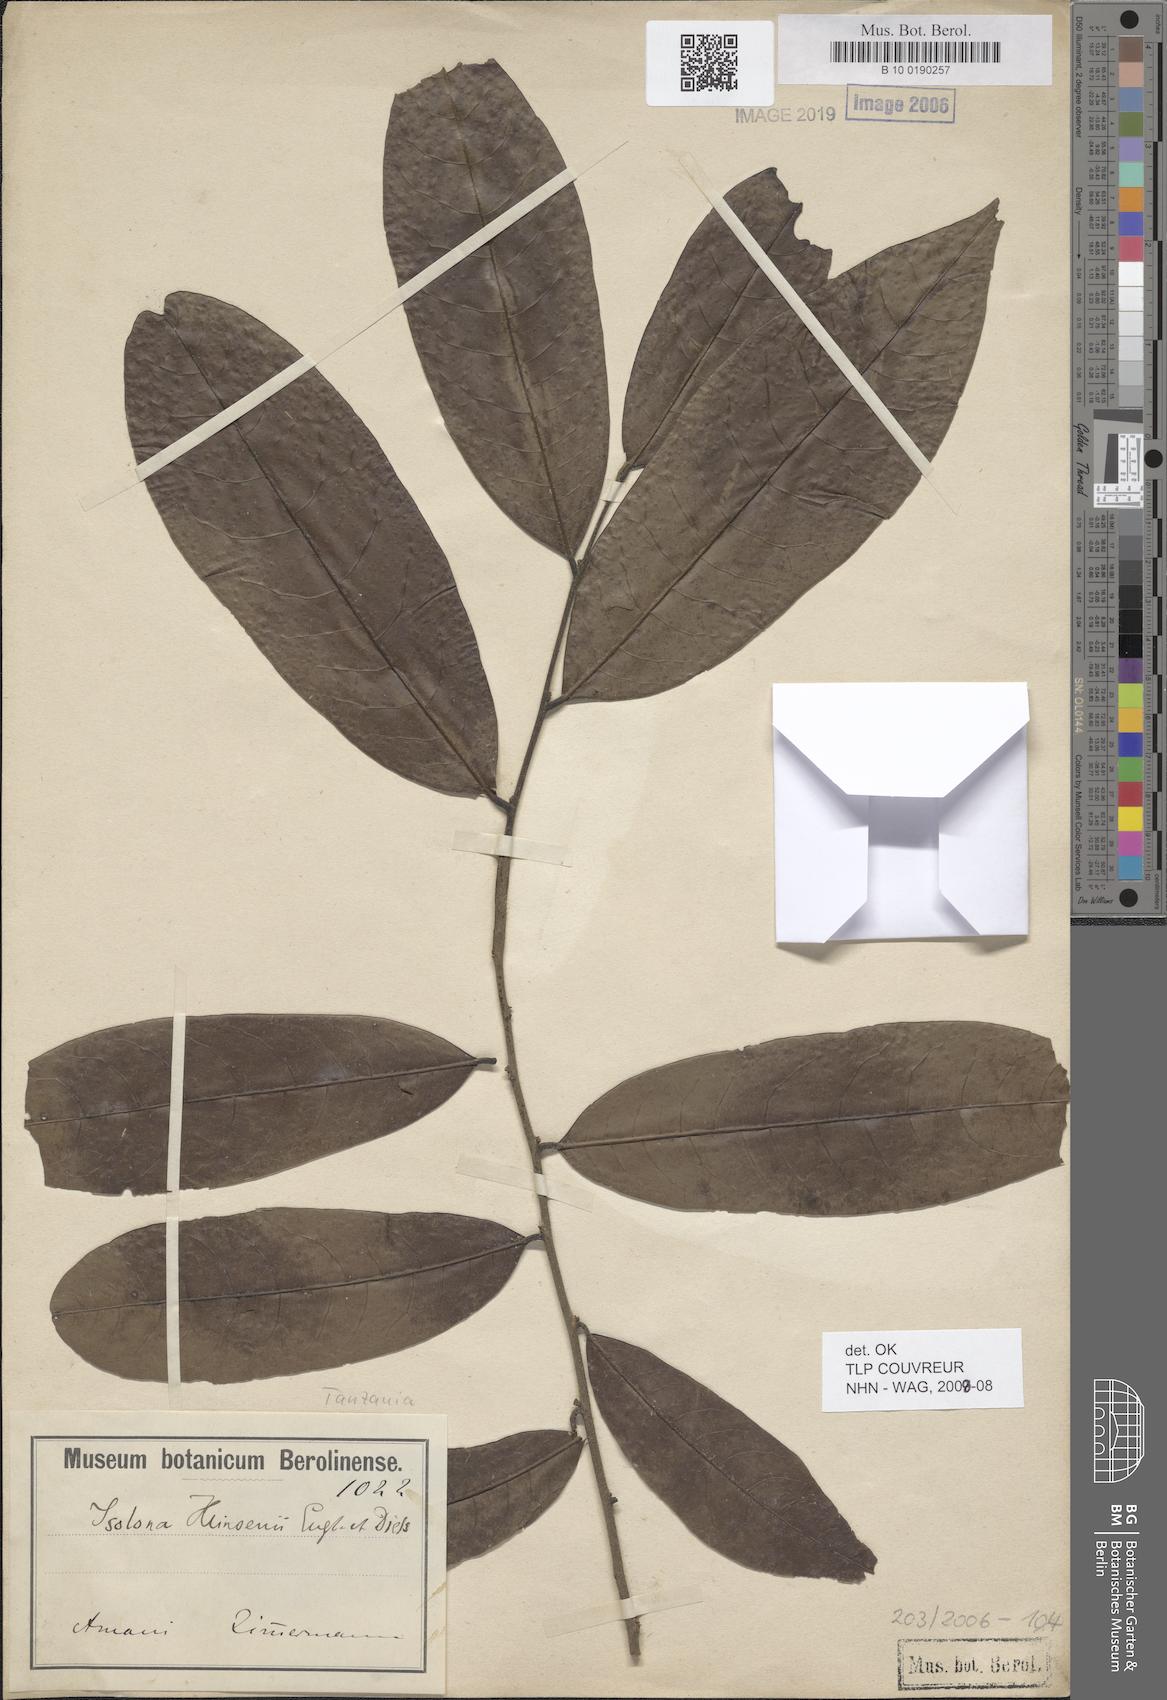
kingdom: Plantae
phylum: Tracheophyta
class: Magnoliopsida
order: Magnoliales
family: Annonaceae
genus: Isolona
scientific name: Isolona heinsenii
